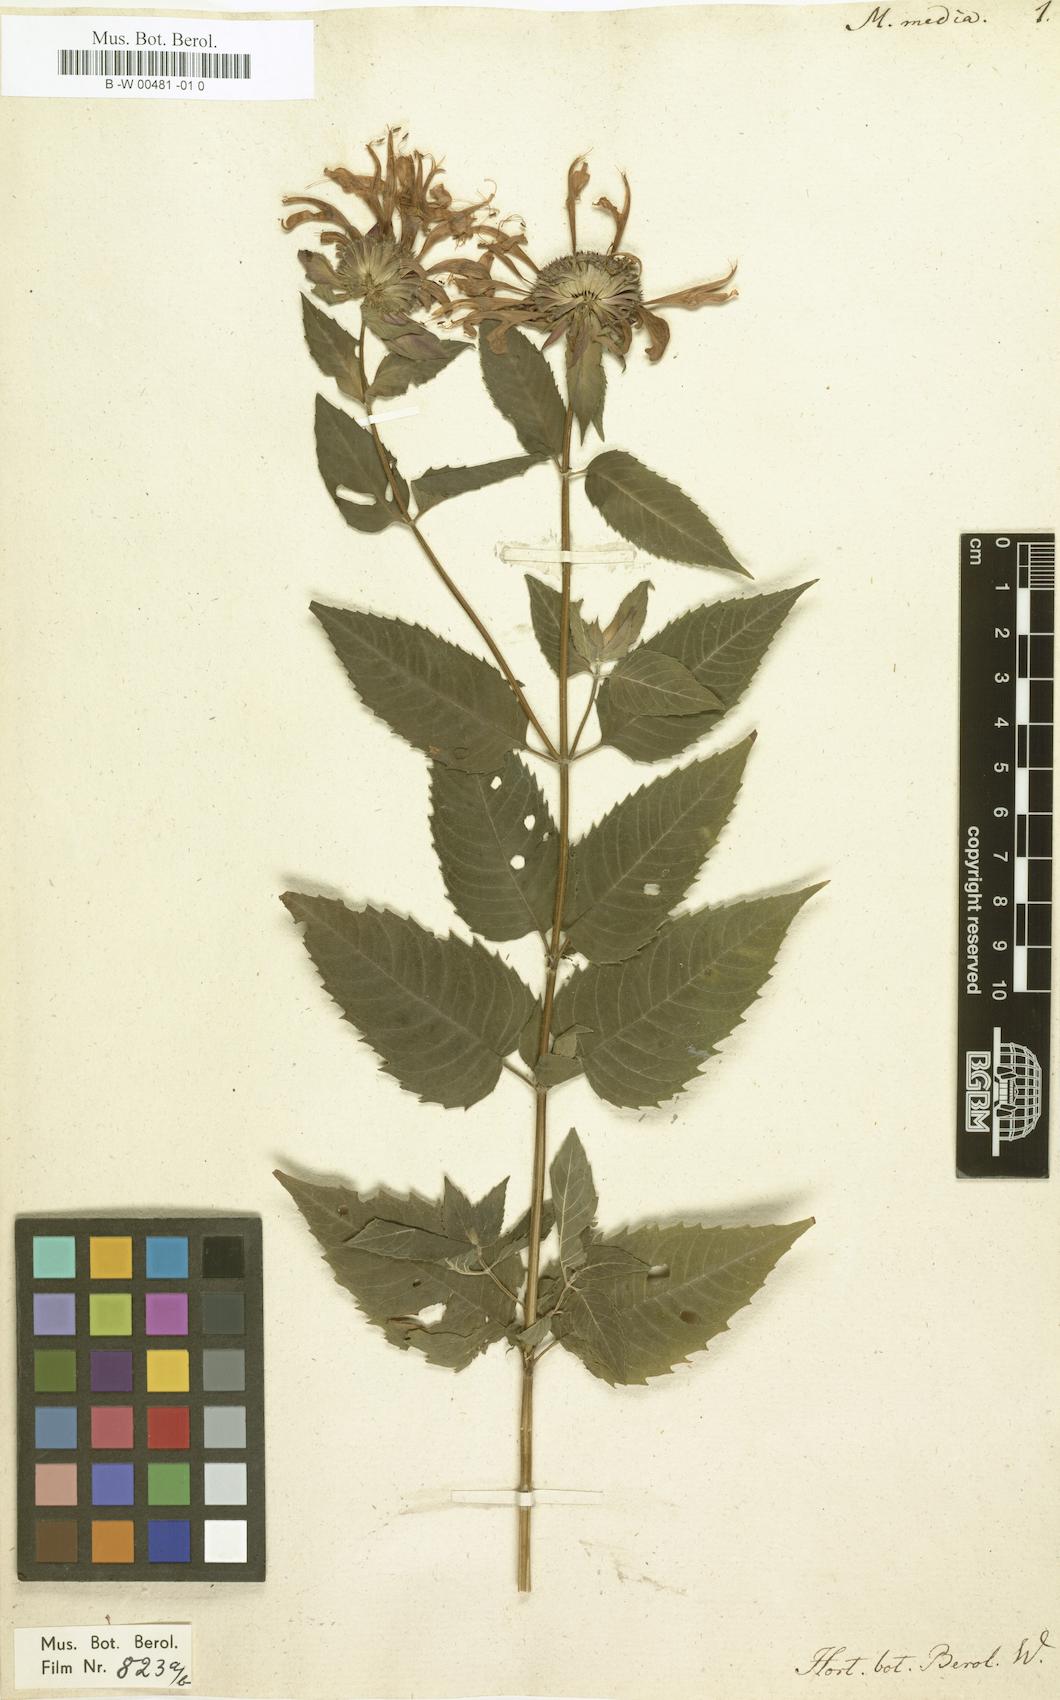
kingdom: Plantae
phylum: Tracheophyta
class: Magnoliopsida
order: Lamiales
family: Lamiaceae
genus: Monarda
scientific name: Monarda media
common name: Purple bergamot
